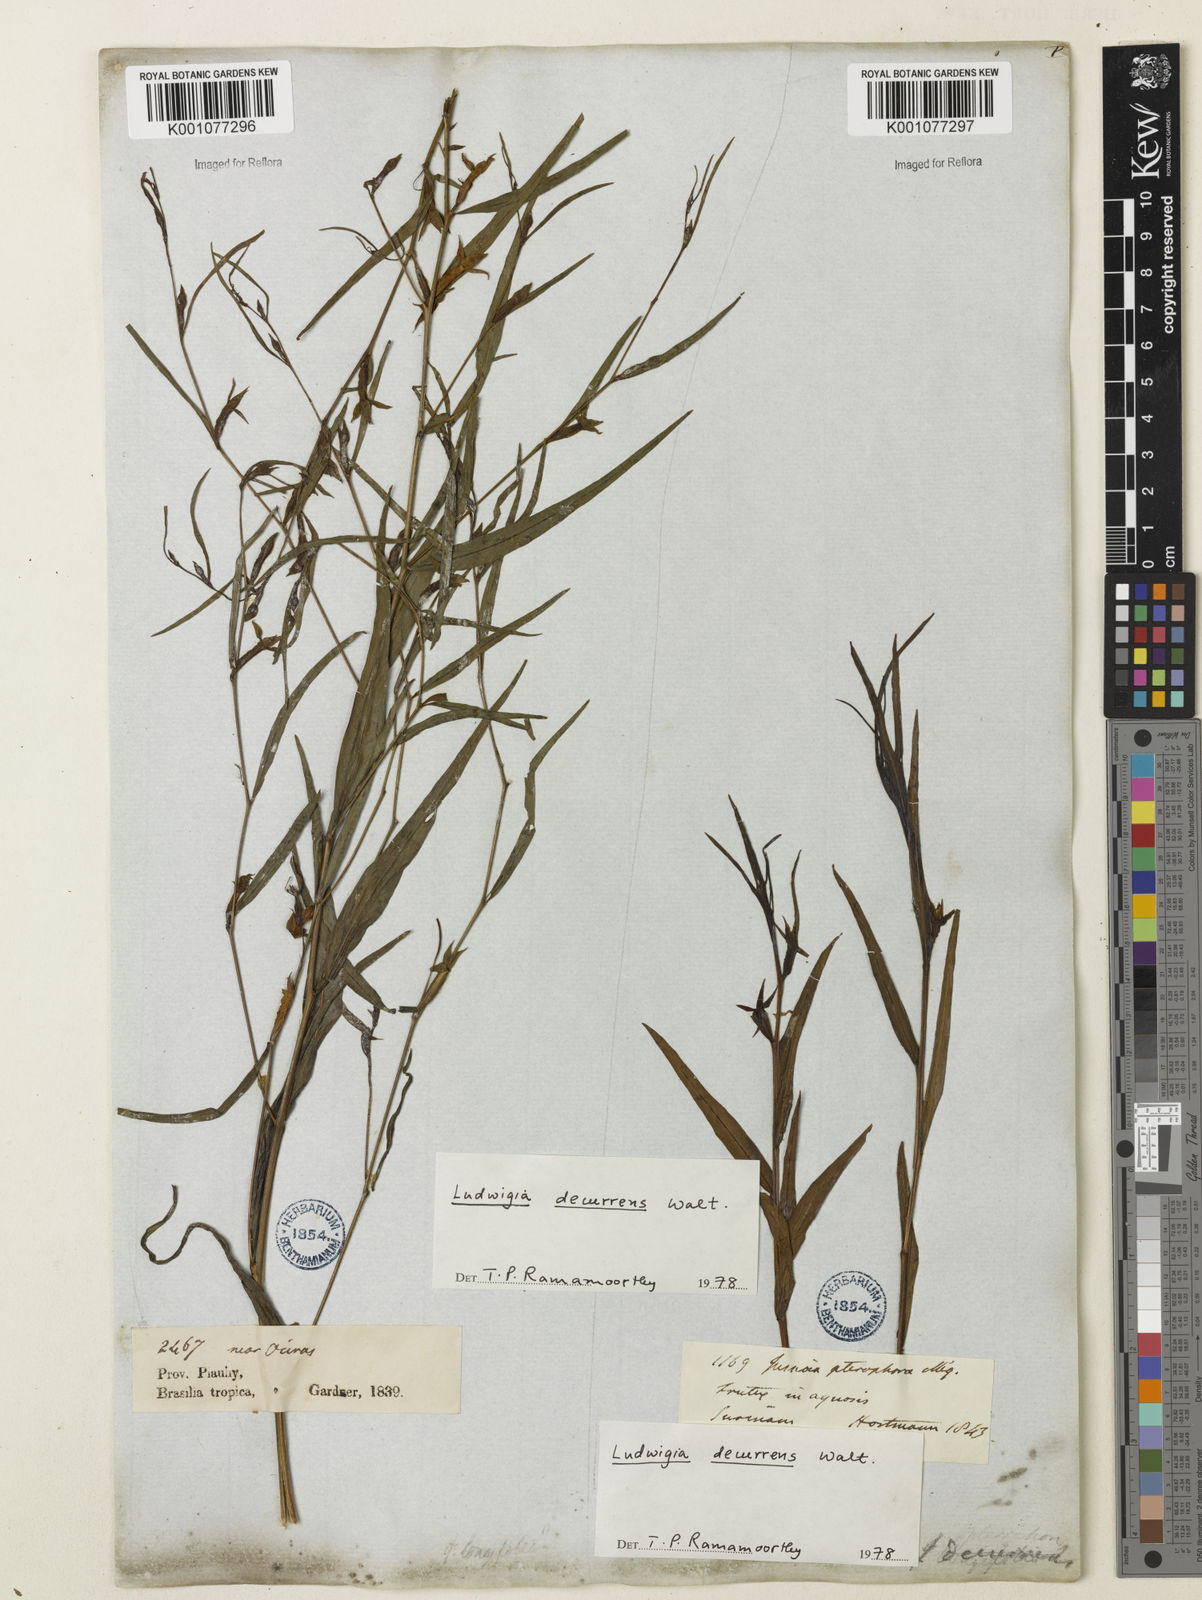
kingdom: Plantae
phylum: Tracheophyta
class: Magnoliopsida
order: Myrtales
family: Onagraceae
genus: Ludwigia
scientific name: Ludwigia decurrens
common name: Winged water-primrose
